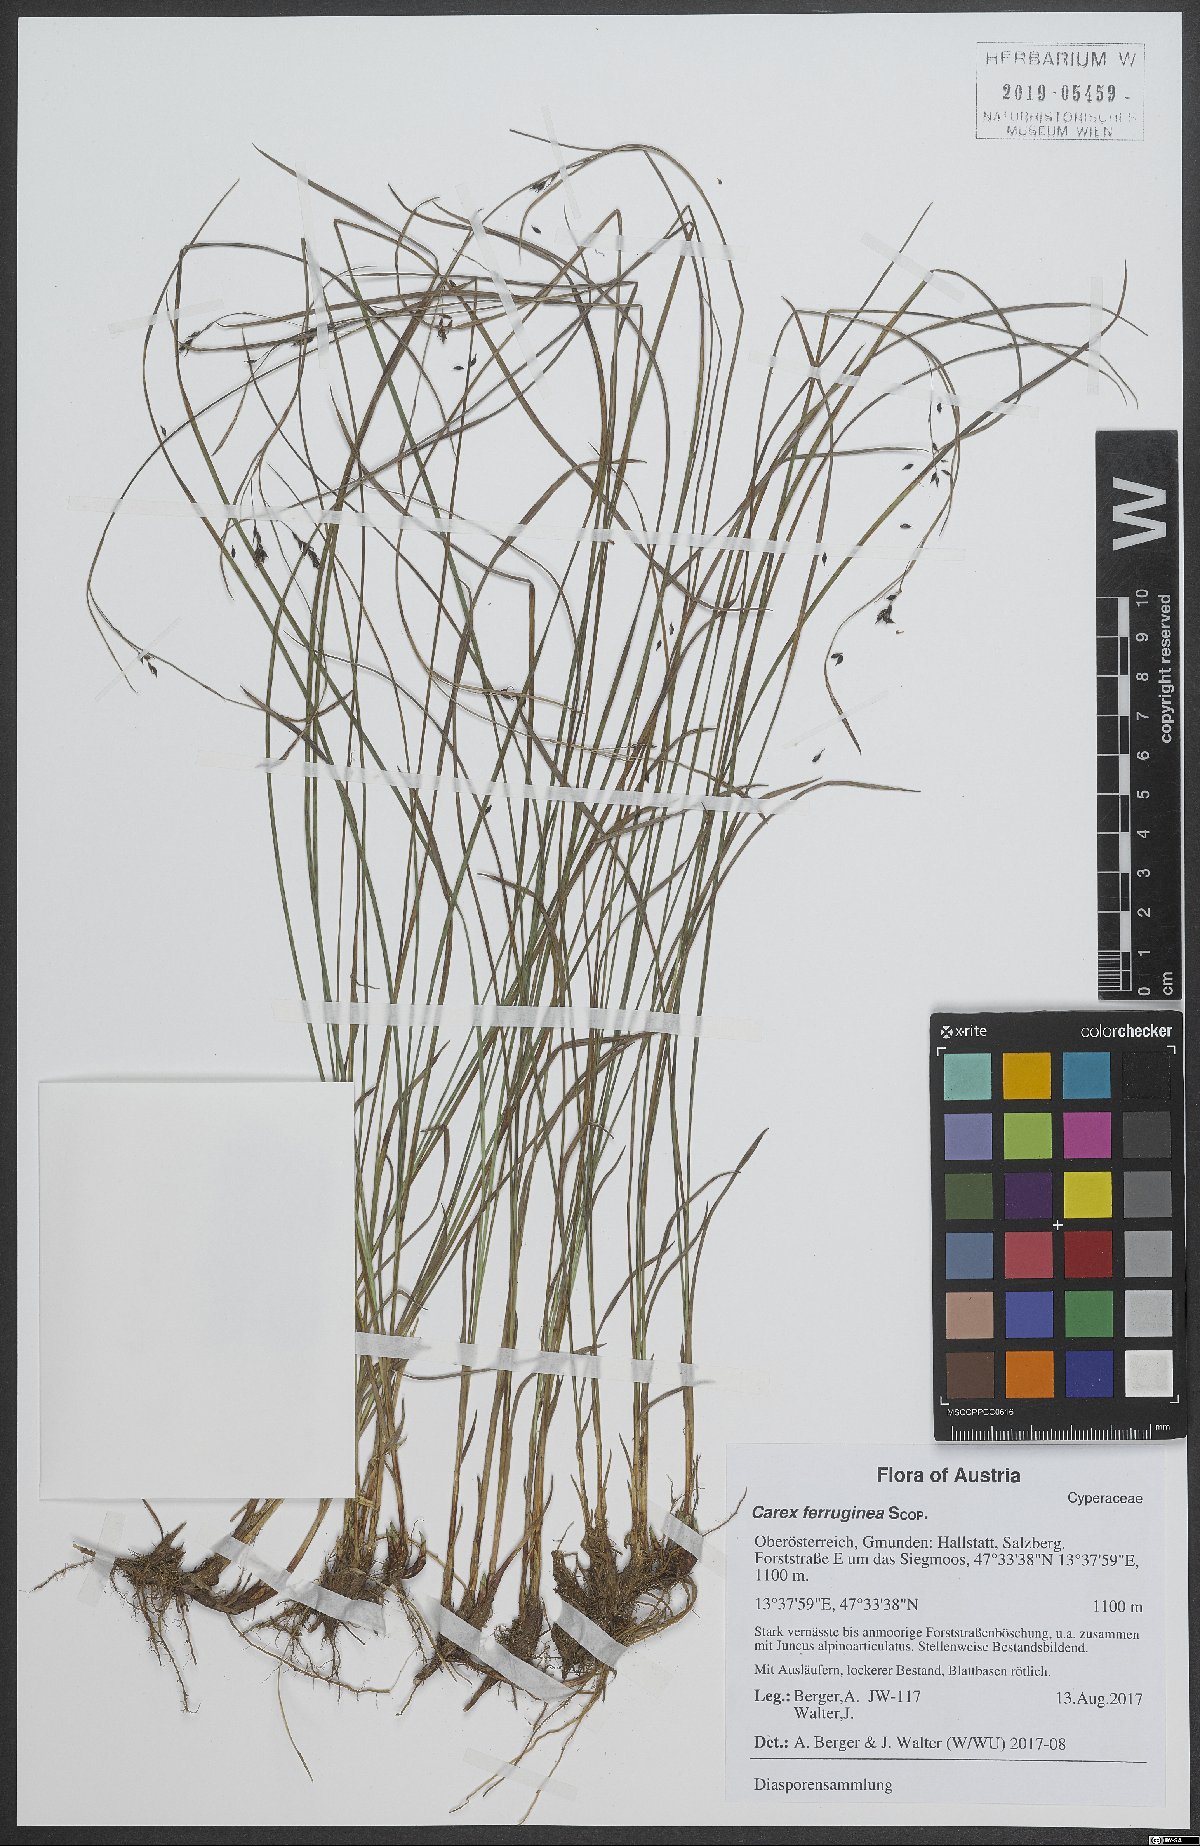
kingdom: Plantae
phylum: Tracheophyta
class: Liliopsida
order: Poales
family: Cyperaceae
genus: Carex
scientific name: Carex ferruginea
